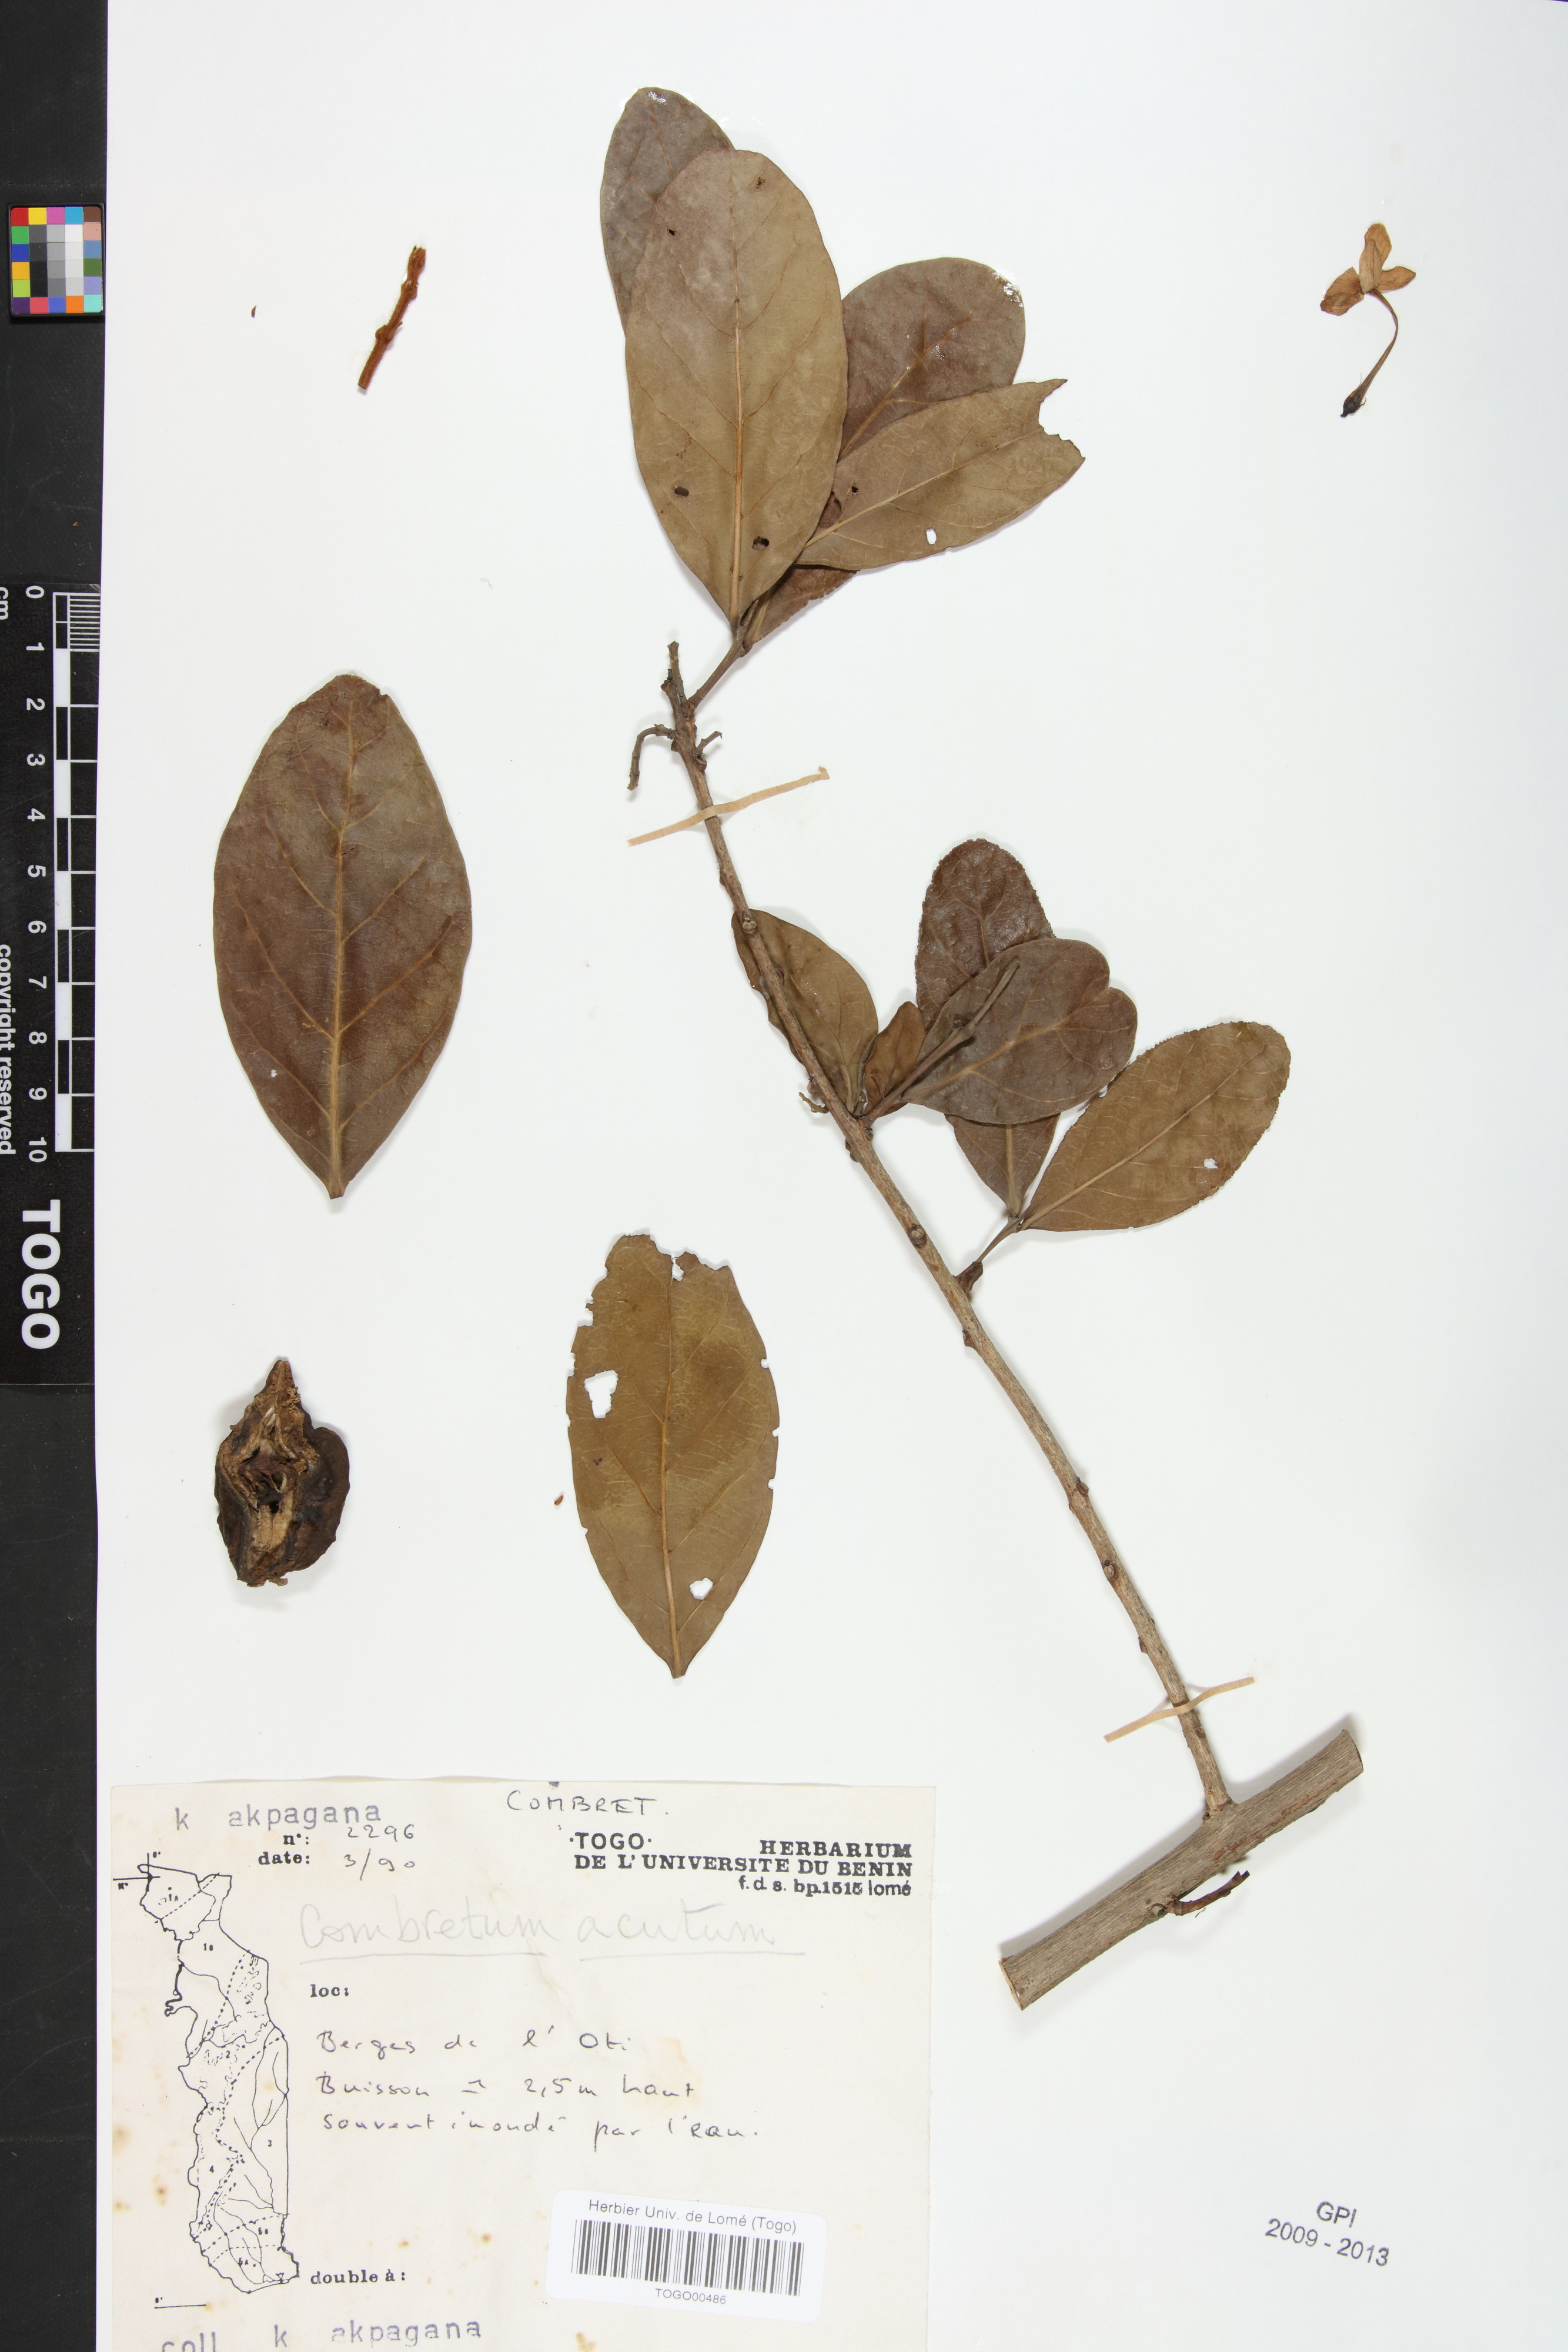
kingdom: Plantae
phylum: Tracheophyta
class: Magnoliopsida
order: Myrtales
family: Combretaceae
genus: Combretum
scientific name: Combretum acutum
